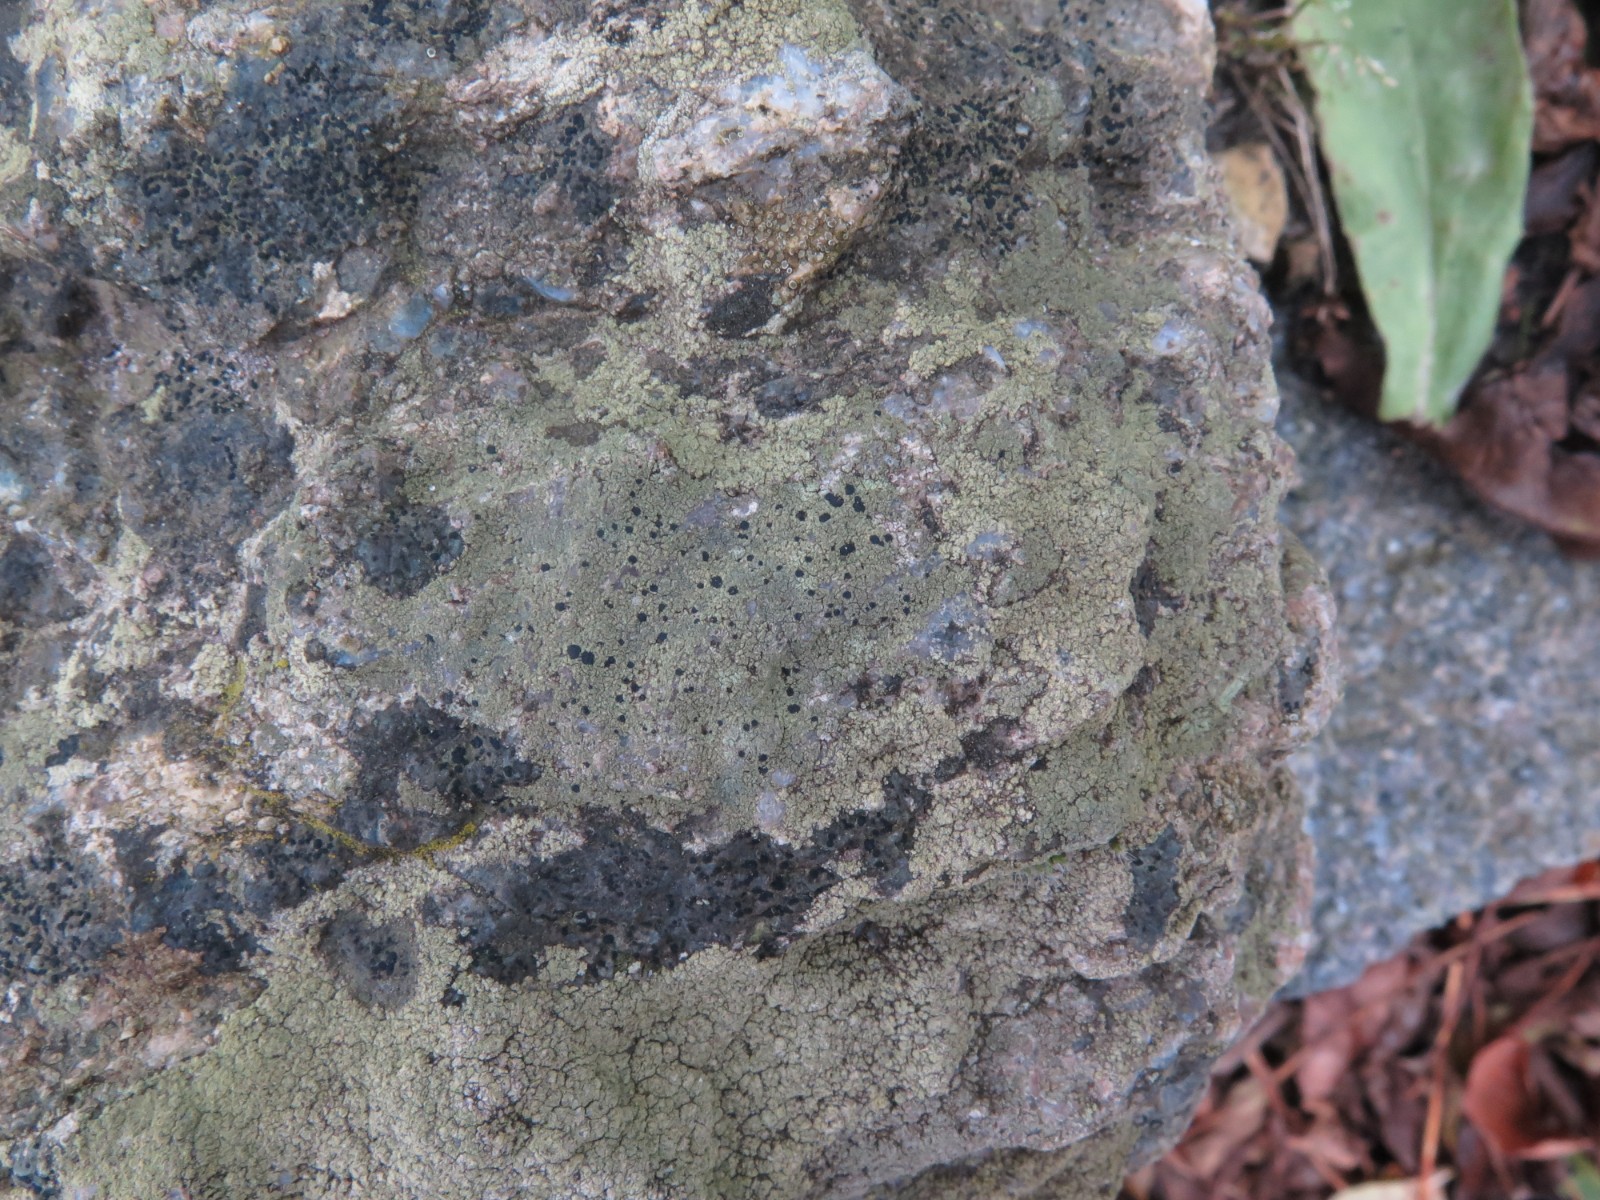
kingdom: Fungi
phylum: Ascomycota
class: Lecanoromycetes
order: Lecanorales
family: Lecanoraceae
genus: Lecidella
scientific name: Lecidella scabra
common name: skurvet skivelav
